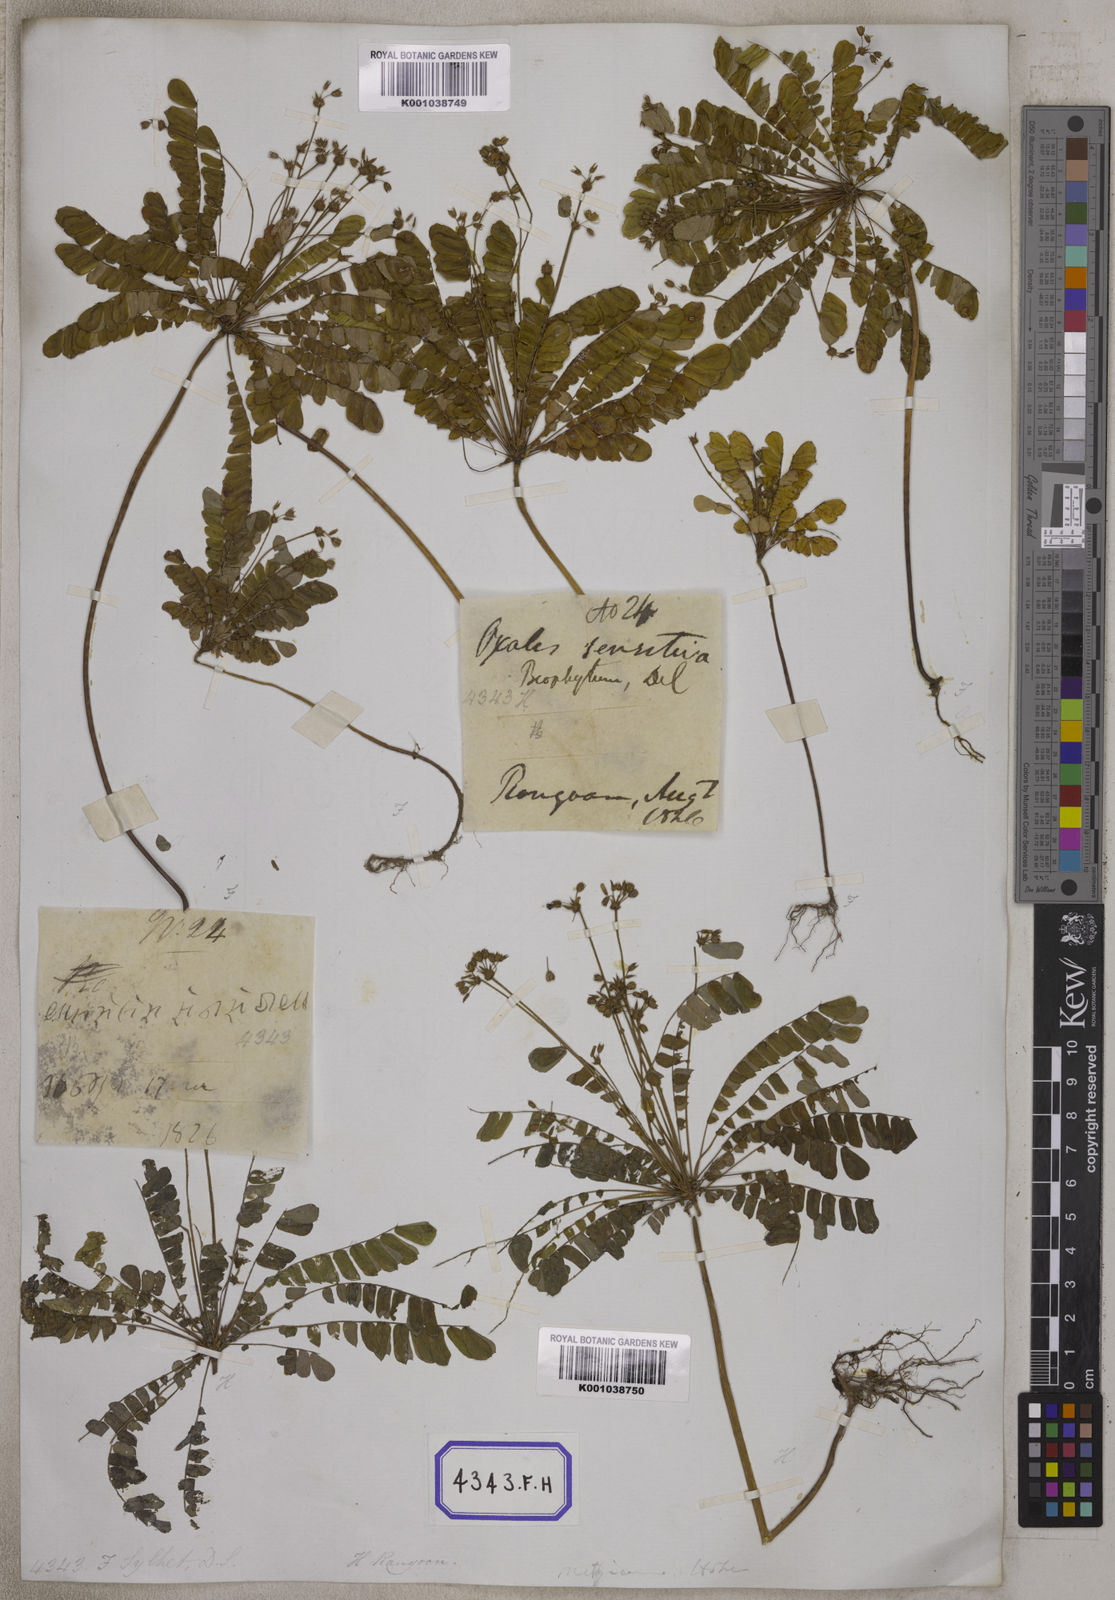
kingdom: Plantae
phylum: Tracheophyta
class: Magnoliopsida
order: Oxalidales
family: Oxalidaceae
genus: Biophytum
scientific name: Biophytum sensitivum
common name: Lifeplant
